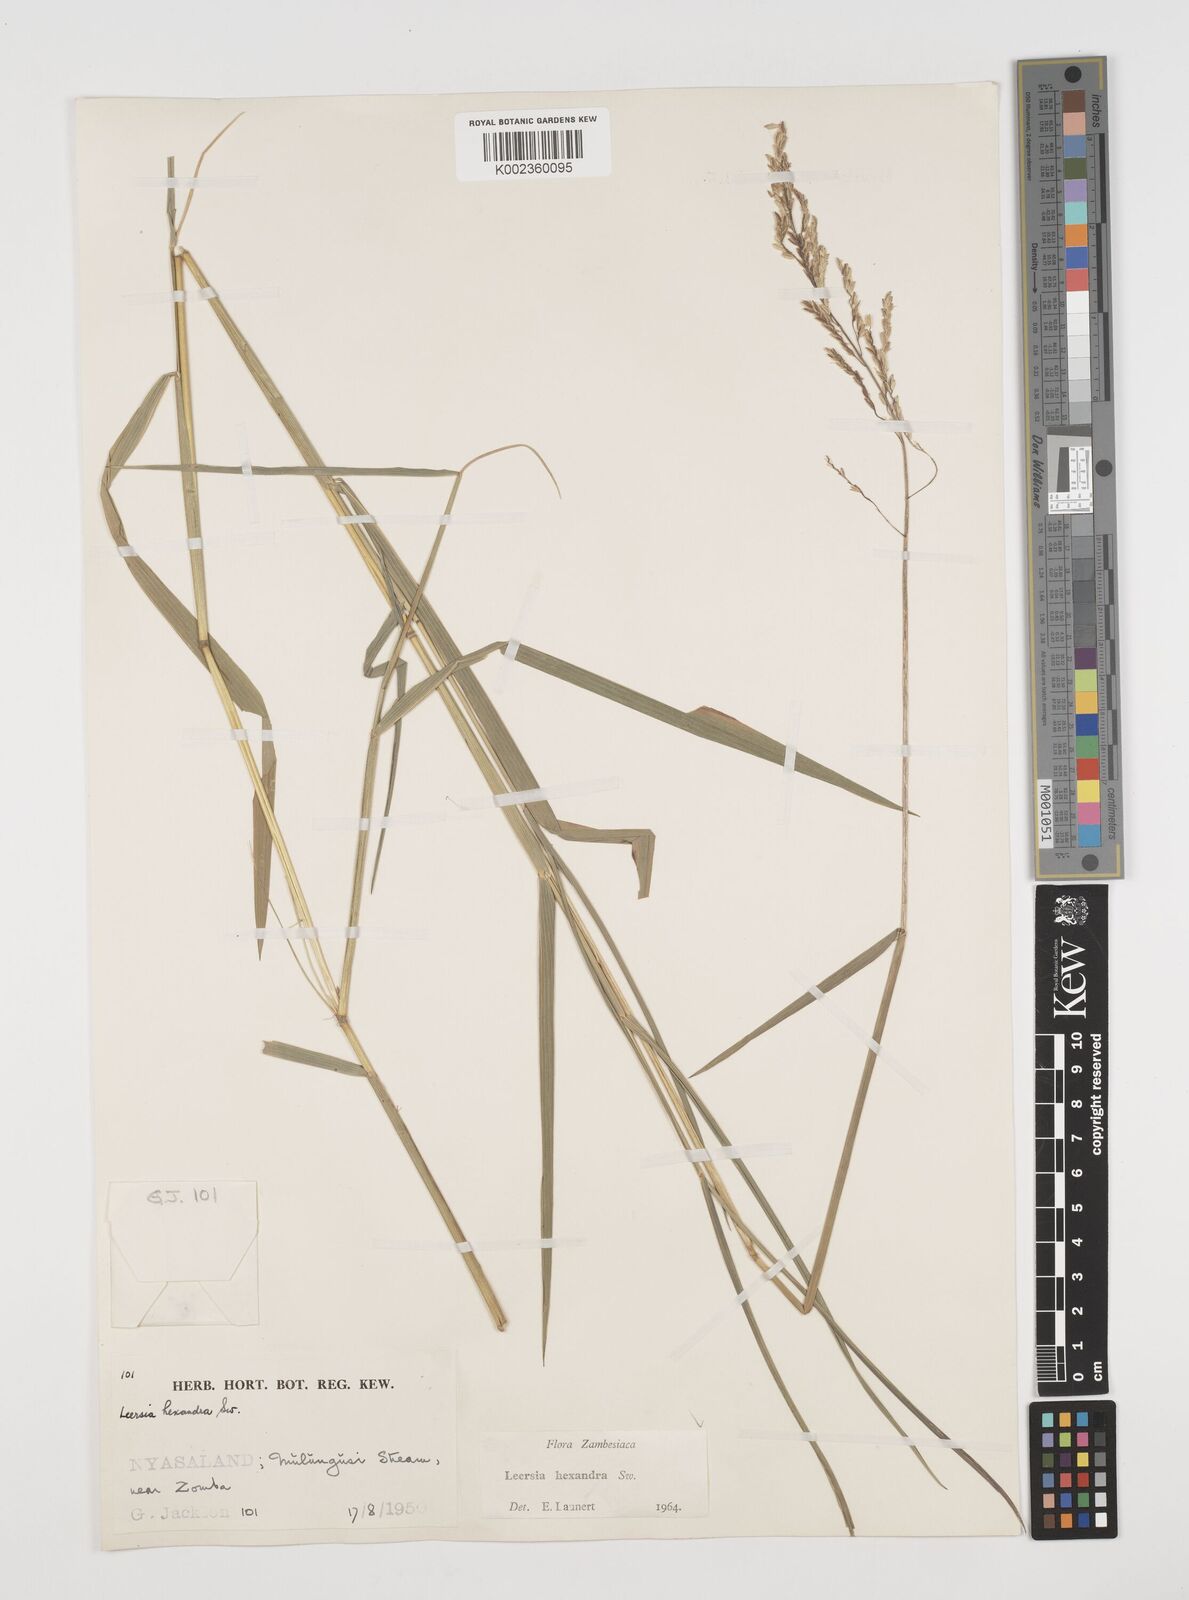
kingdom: Plantae
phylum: Tracheophyta
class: Liliopsida
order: Poales
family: Poaceae
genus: Leersia
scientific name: Leersia hexandra
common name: Southern cut grass
